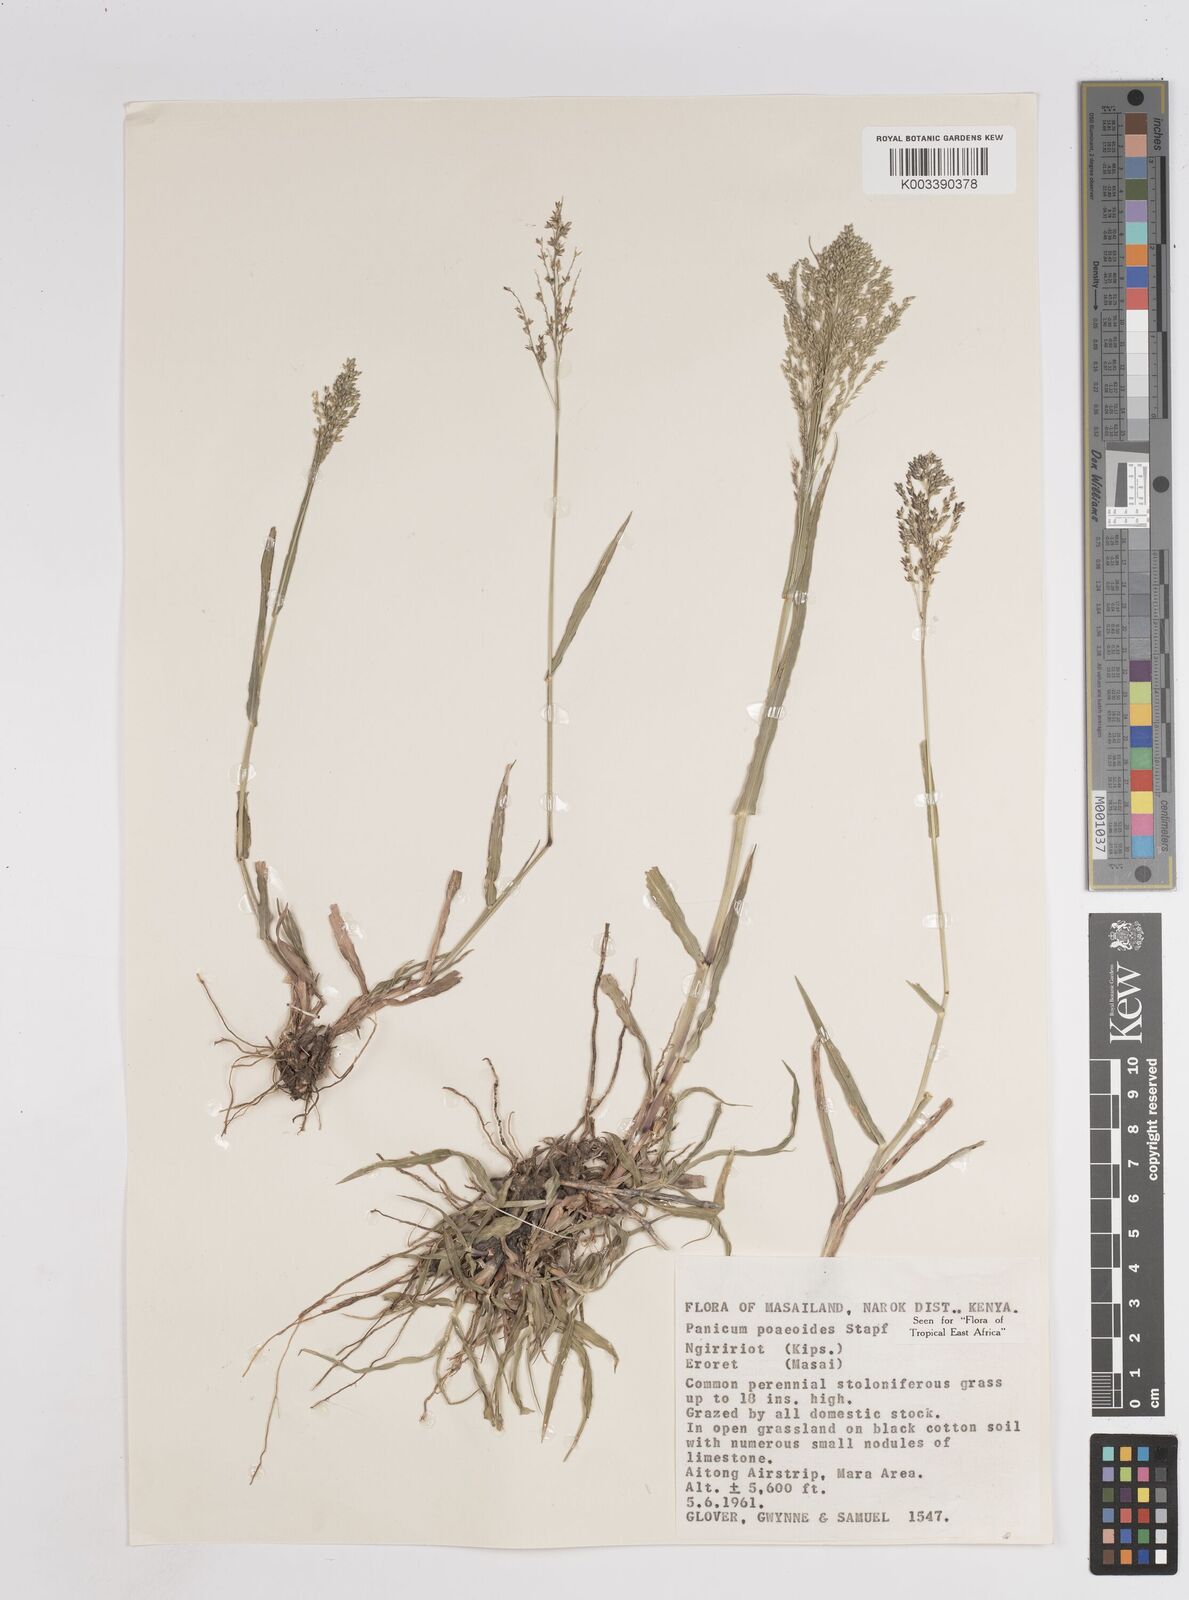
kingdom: Plantae
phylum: Tracheophyta
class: Liliopsida
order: Poales
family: Poaceae
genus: Panicum
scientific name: Panicum
